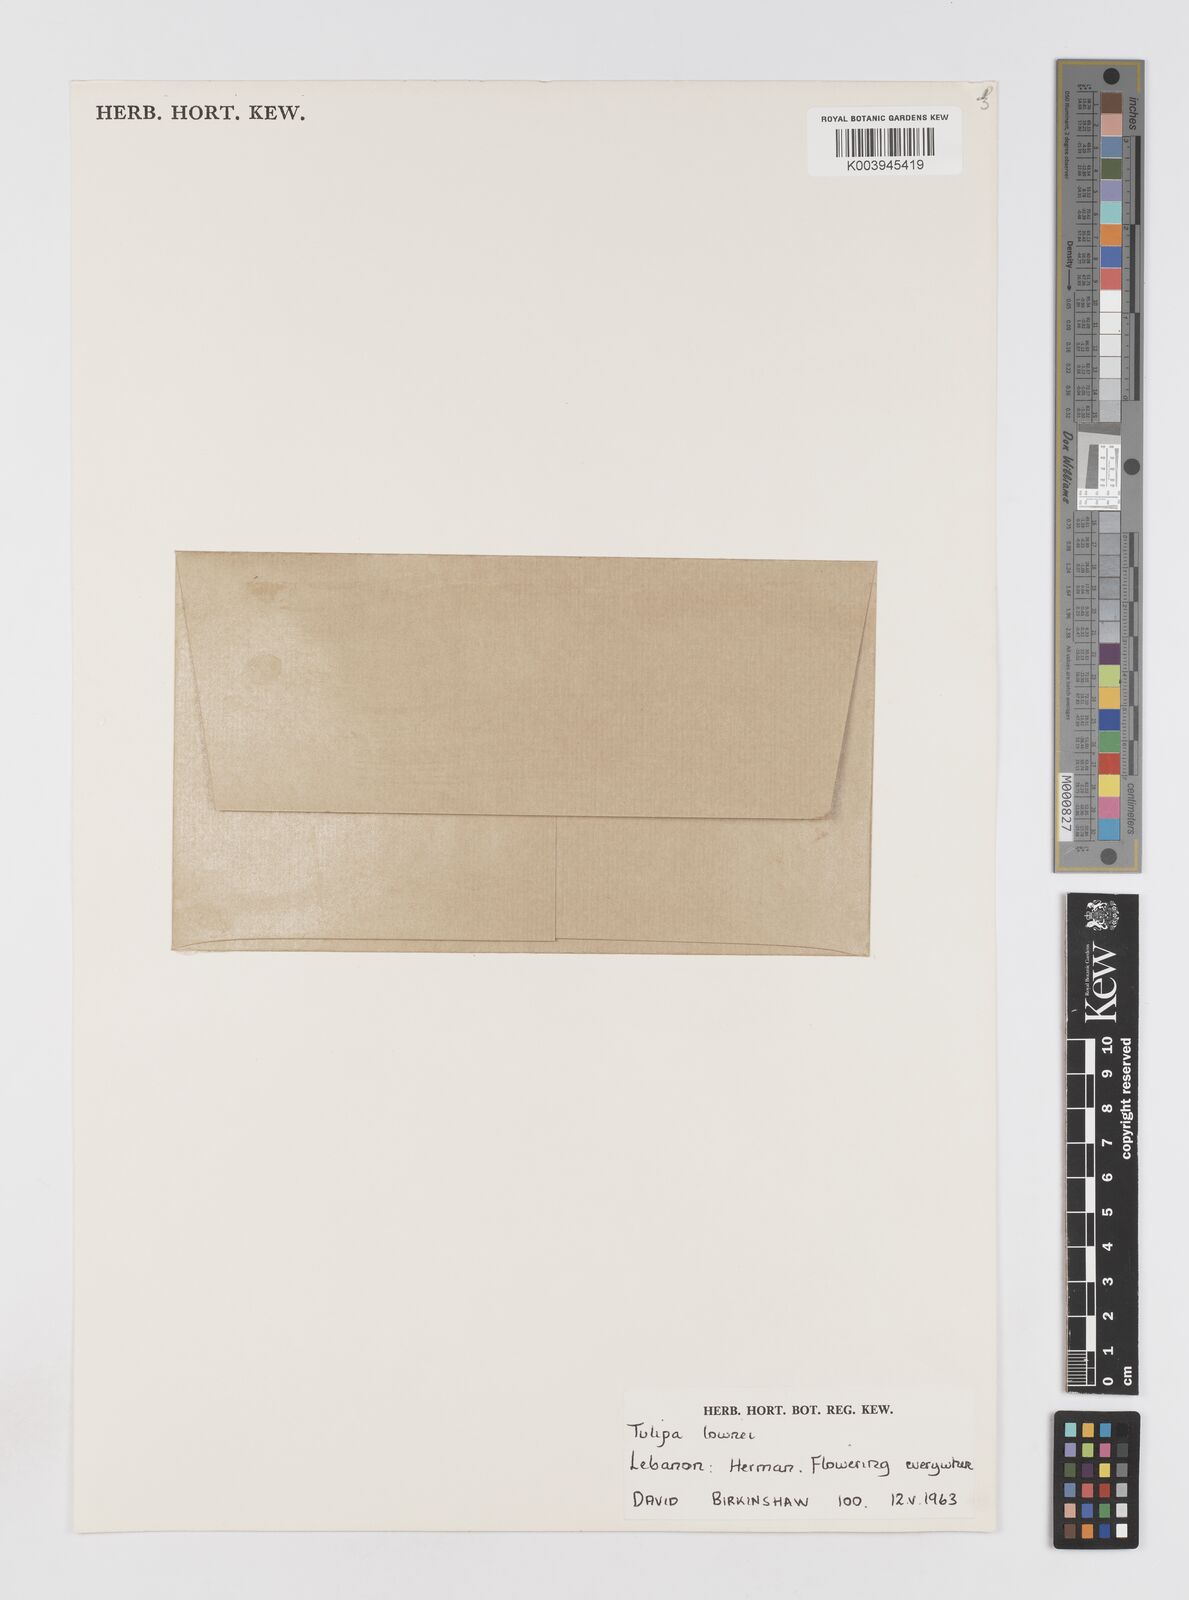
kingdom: Plantae
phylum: Tracheophyta
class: Liliopsida
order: Liliales
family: Liliaceae
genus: Tulipa
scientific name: Tulipa humilis
